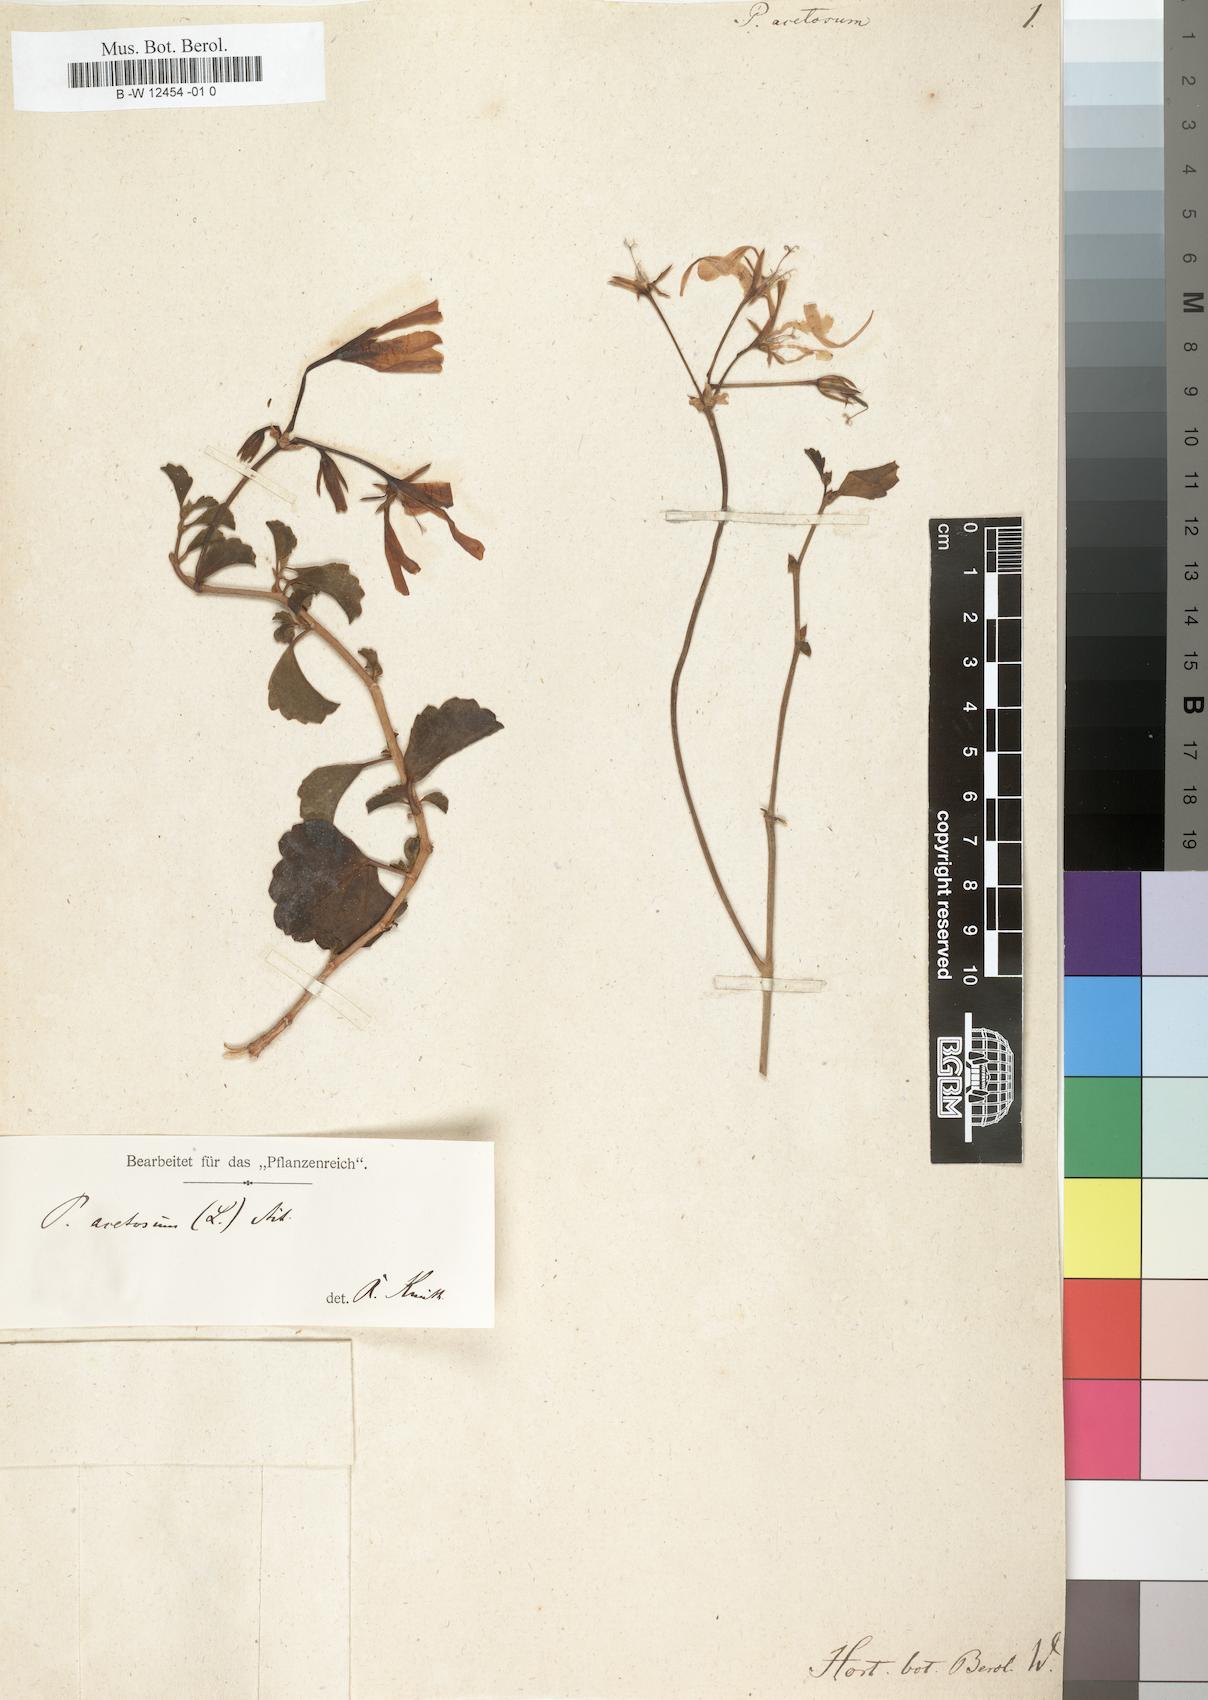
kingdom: Plantae
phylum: Tracheophyta
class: Magnoliopsida
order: Geraniales
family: Geraniaceae
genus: Pelargonium
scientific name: Pelargonium acetosum
